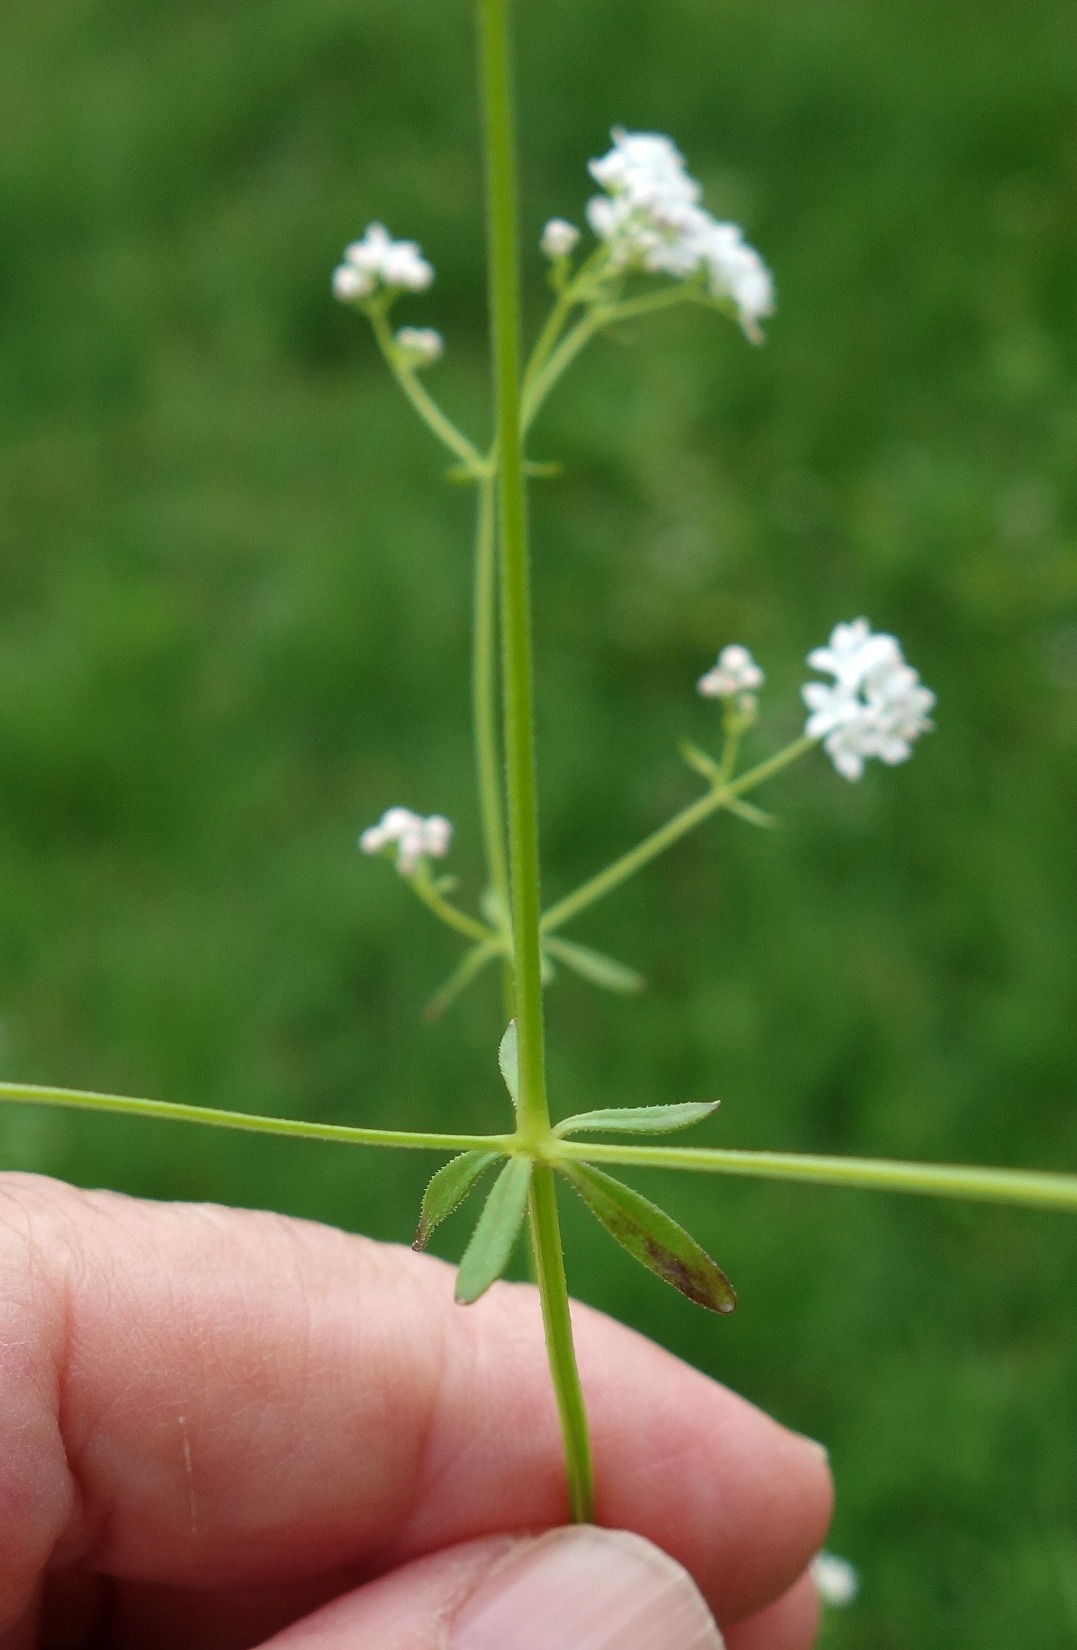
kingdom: Plantae
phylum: Tracheophyta
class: Magnoliopsida
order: Gentianales
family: Rubiaceae
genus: Galium
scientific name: Galium palustre
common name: Kær-snerre
